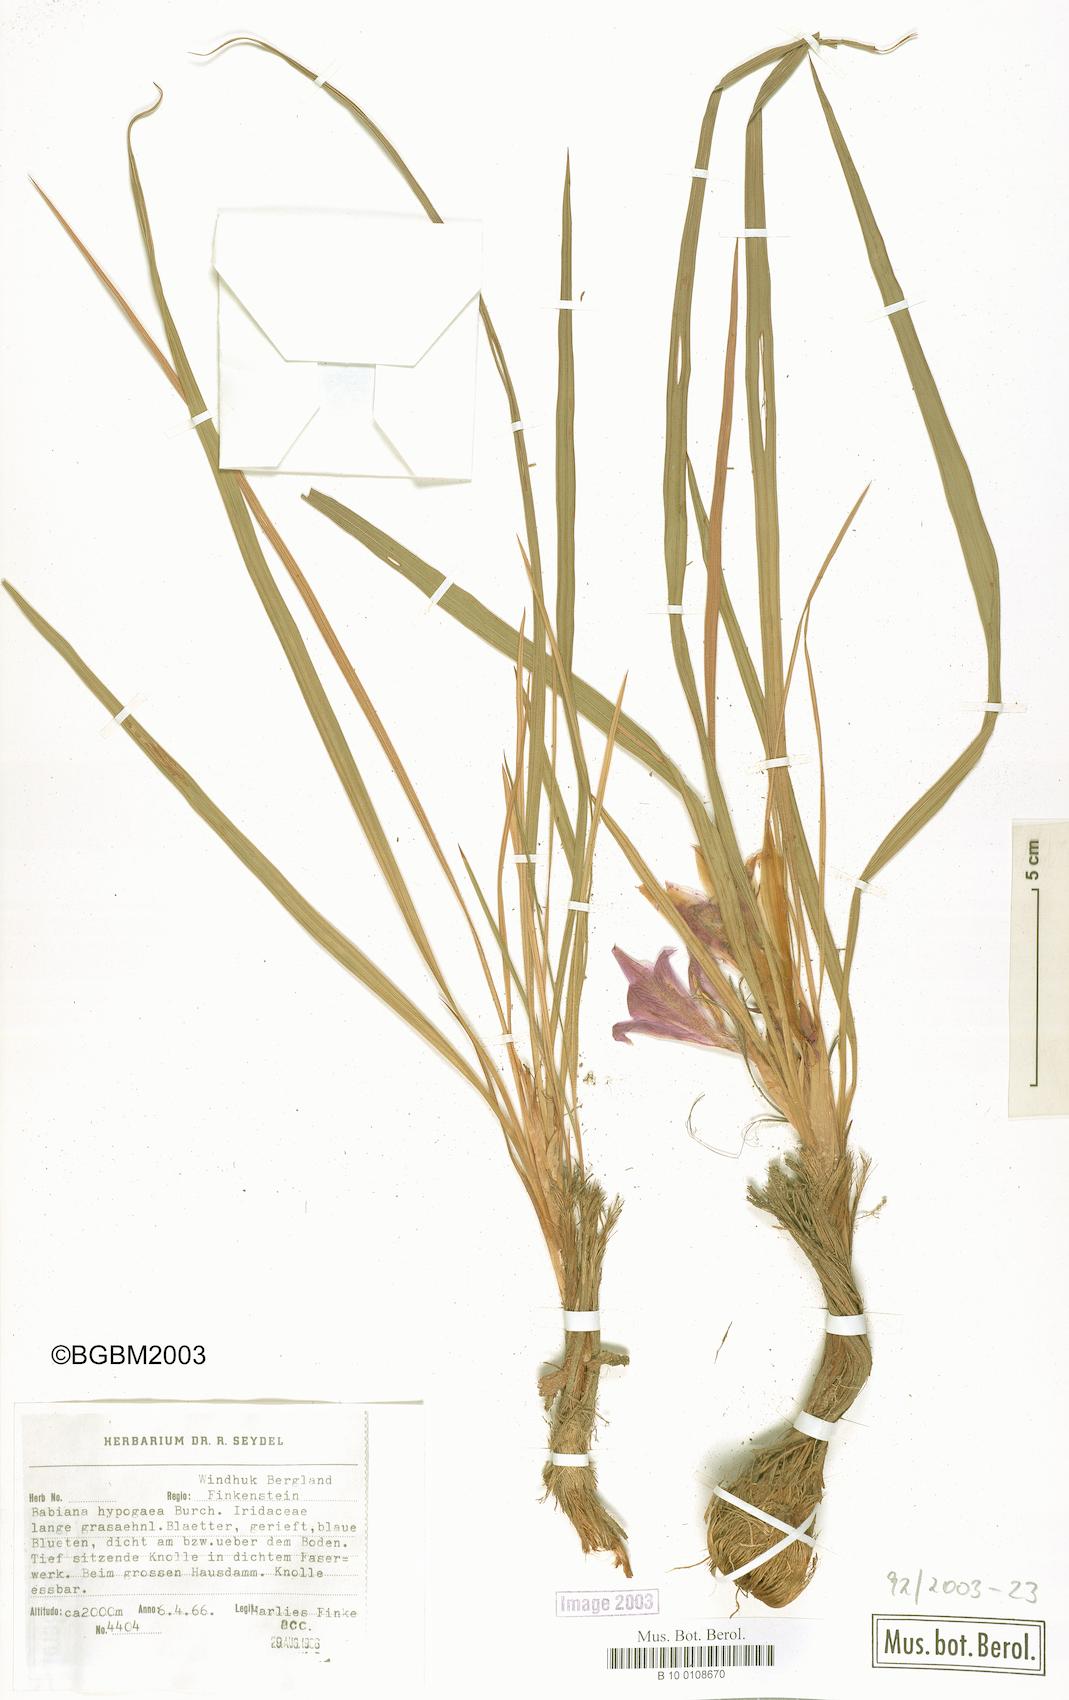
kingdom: Plantae
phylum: Tracheophyta
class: Liliopsida
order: Asparagales
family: Iridaceae
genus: Babiana
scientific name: Babiana hypogaea
